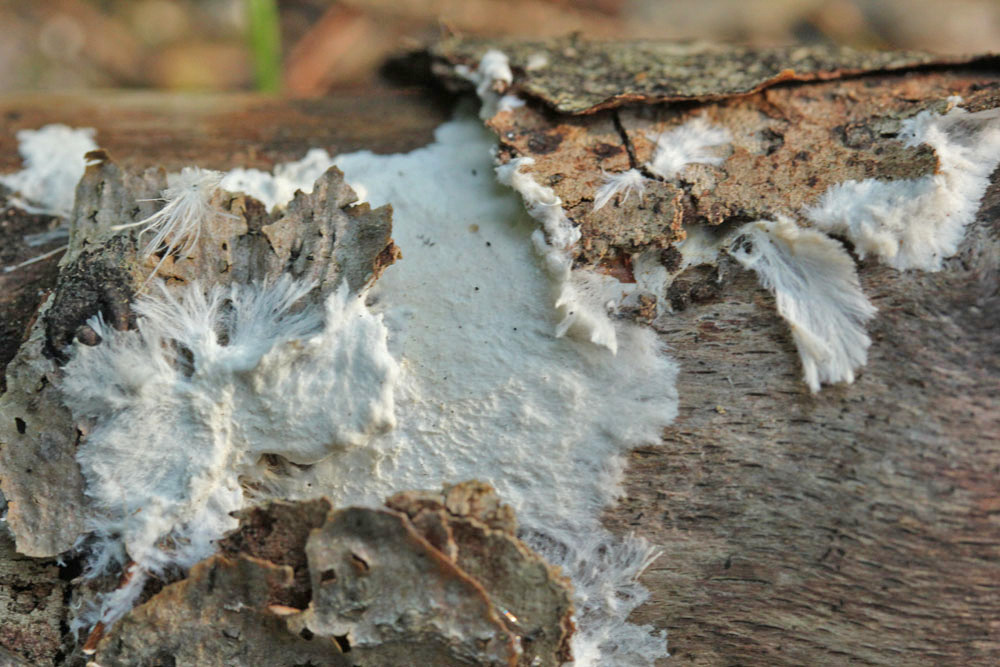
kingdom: Fungi
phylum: Basidiomycota
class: Agaricomycetes
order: Polyporales
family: Phanerochaetaceae
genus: Phanerochaete
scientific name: Phanerochaete velutina
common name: dunet randtråd
